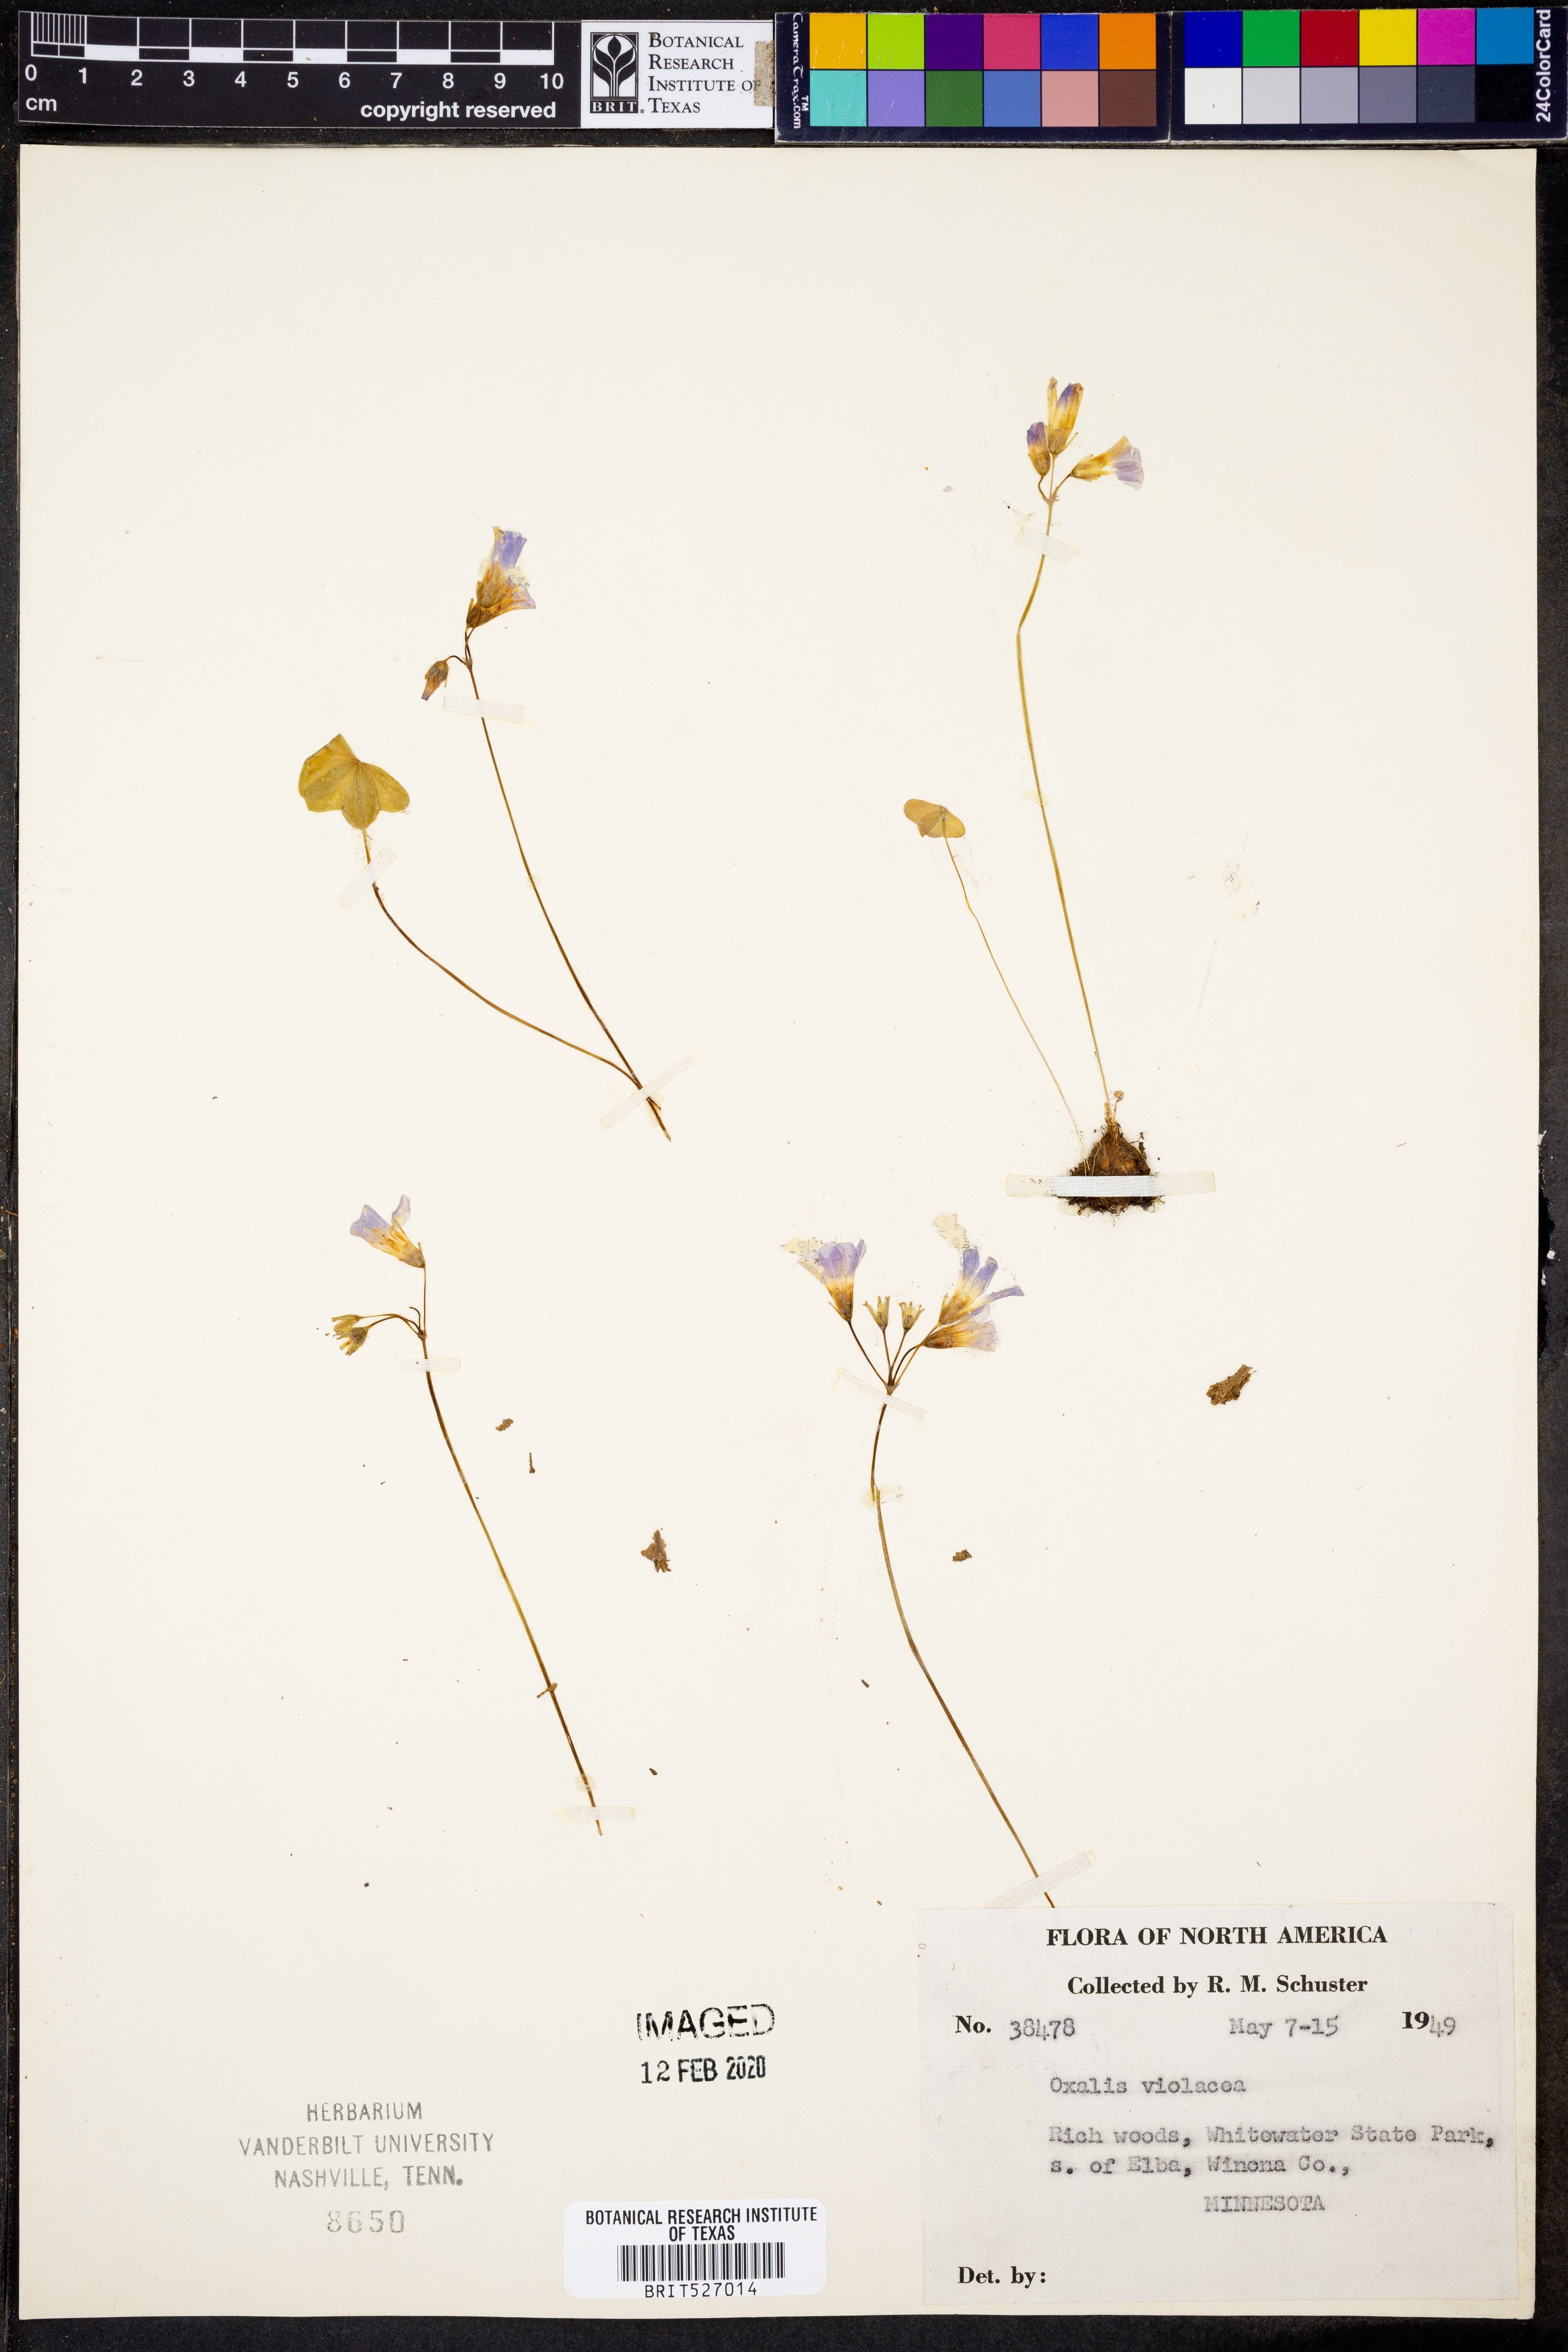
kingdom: Plantae
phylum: Tracheophyta
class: Magnoliopsida
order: Oxalidales
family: Oxalidaceae
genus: Oxalis
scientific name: Oxalis violacea
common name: Violet wood-sorrel
